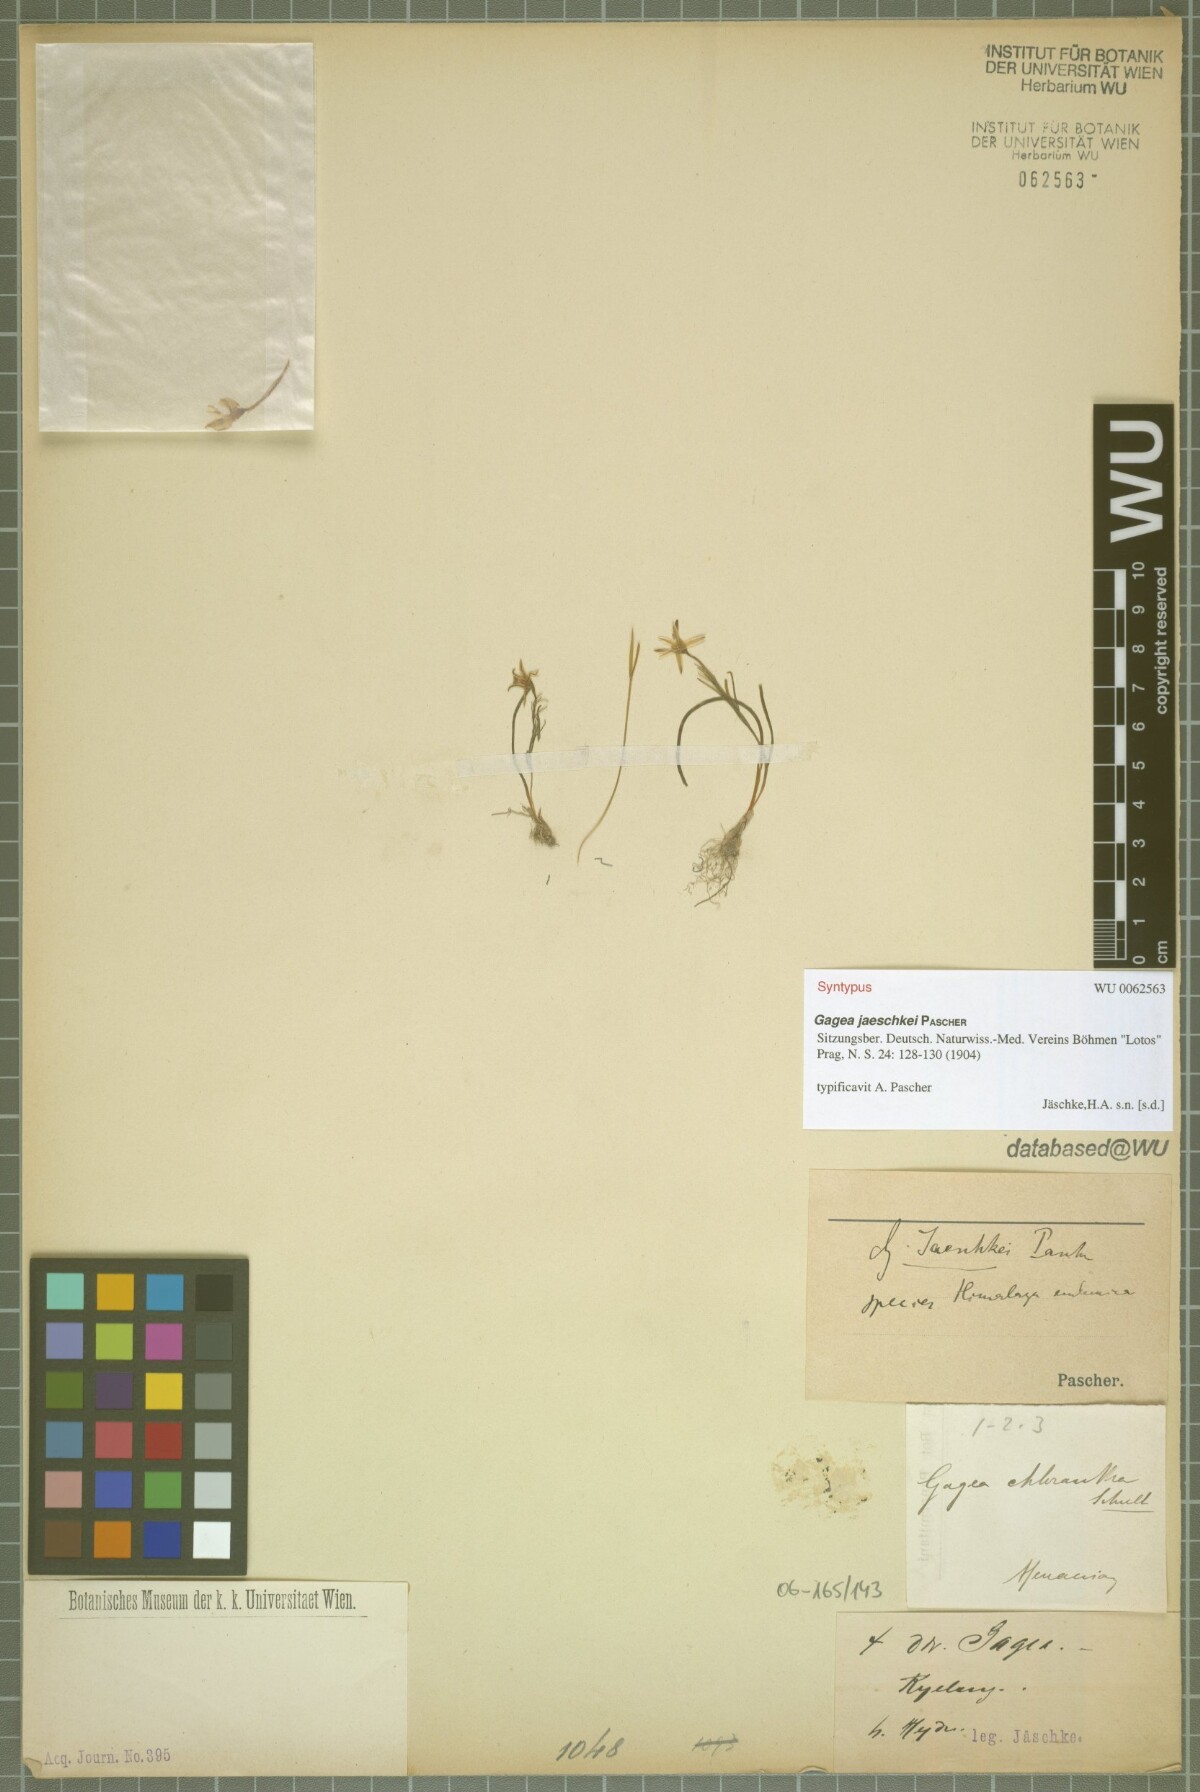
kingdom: Plantae
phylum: Tracheophyta
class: Liliopsida
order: Liliales
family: Liliaceae
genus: Gagea
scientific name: Gagea jaeschkei
